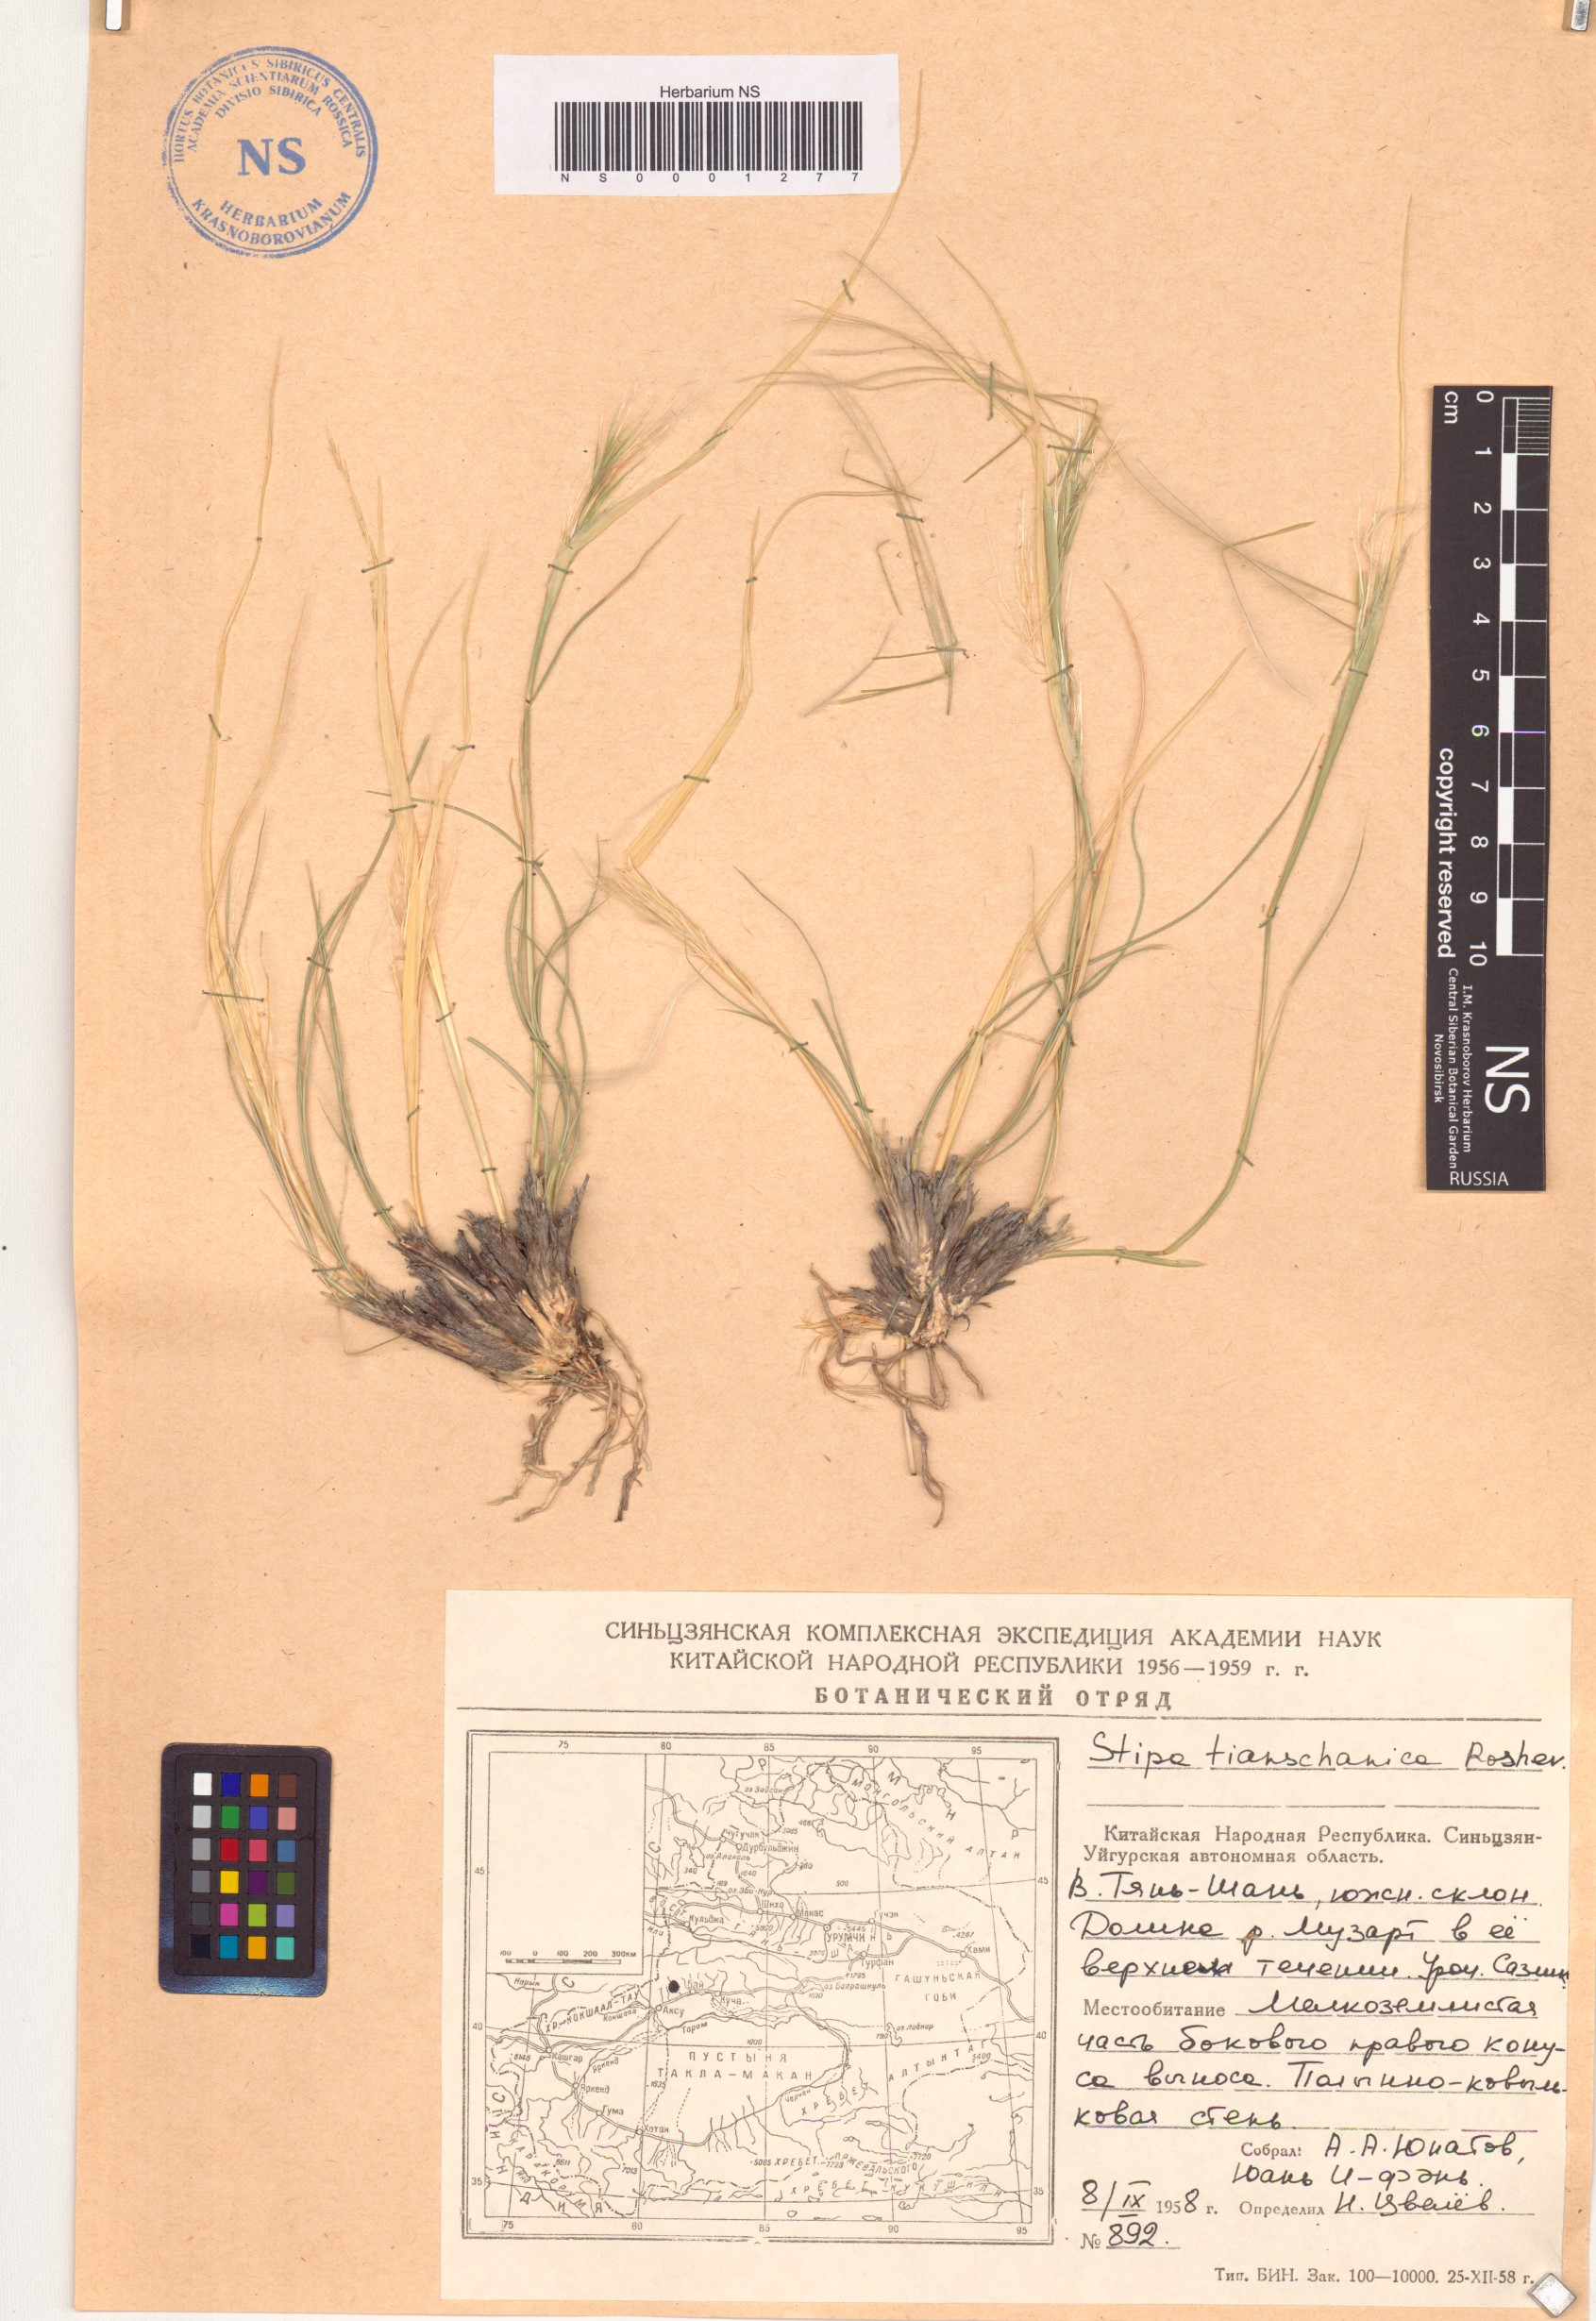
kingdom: Plantae
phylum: Tracheophyta
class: Liliopsida
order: Poales
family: Poaceae
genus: Stipa
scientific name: Stipa tianschanica
